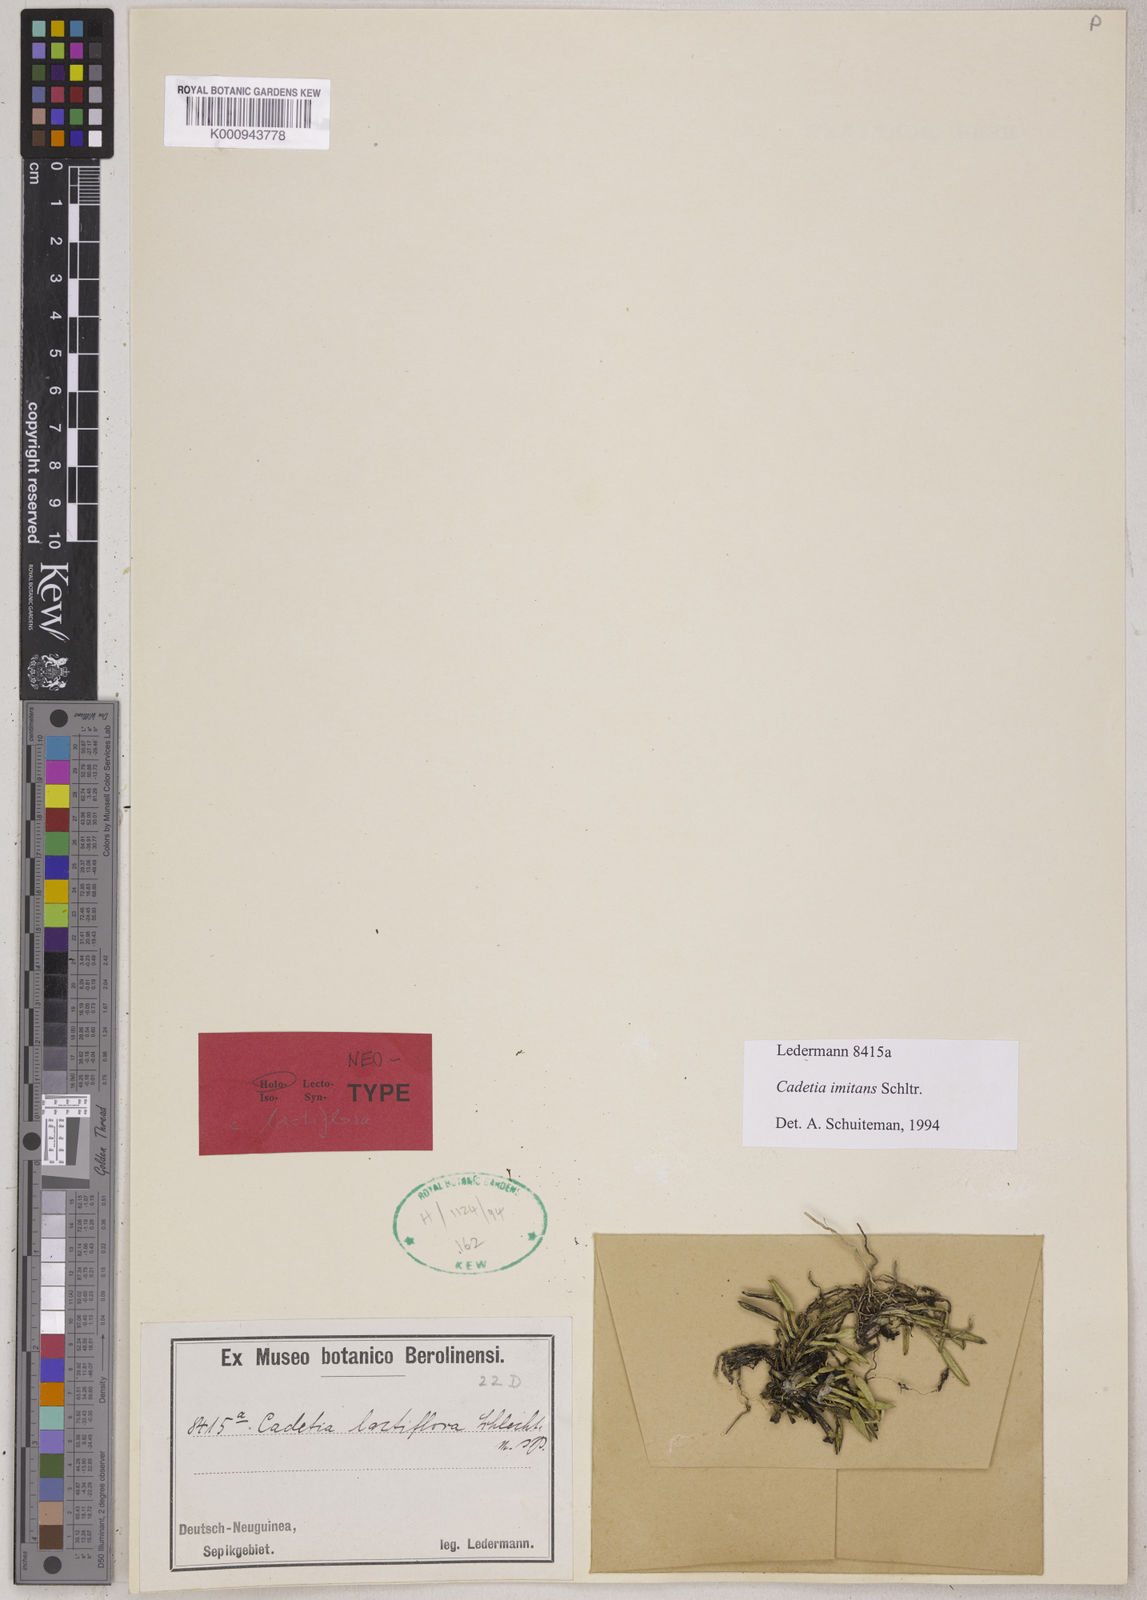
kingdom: Plantae
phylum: Tracheophyta
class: Liliopsida
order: Asparagales
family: Orchidaceae
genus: Dendrobium
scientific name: Dendrobium subretusum
